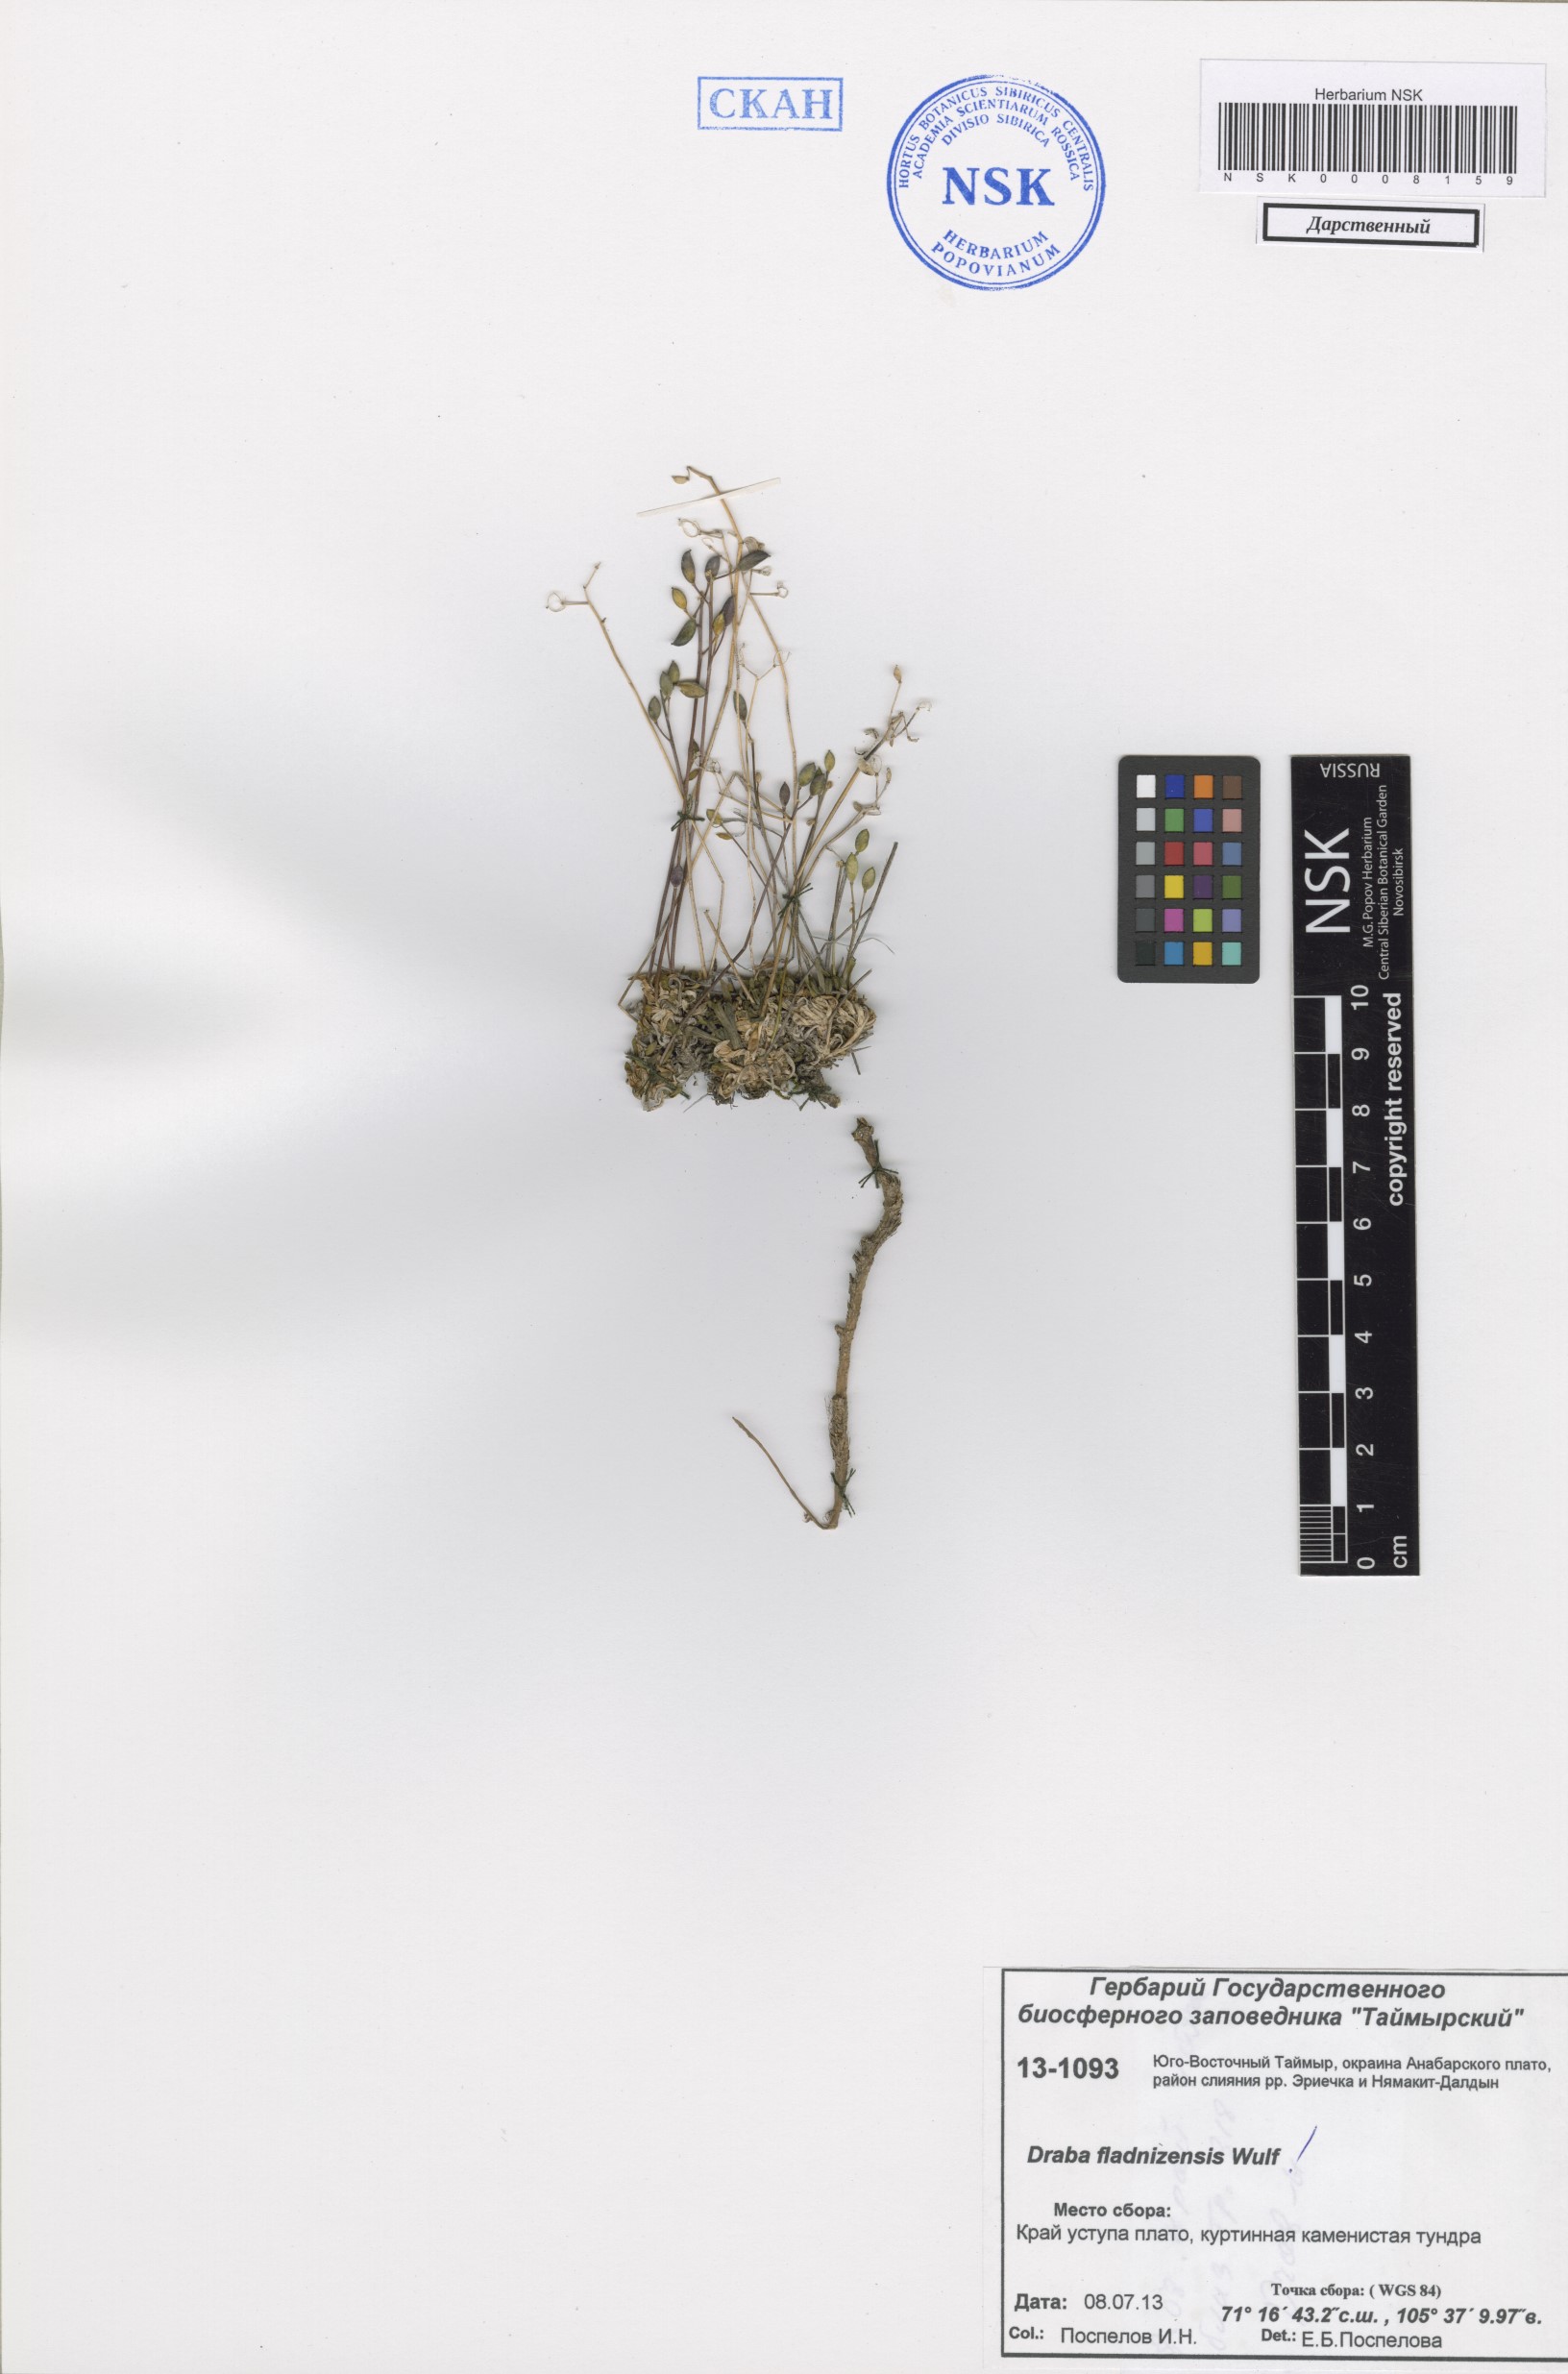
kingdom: Plantae
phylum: Tracheophyta
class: Magnoliopsida
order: Brassicales
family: Brassicaceae
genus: Draba
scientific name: Draba fladnizensis
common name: Austrian draba
